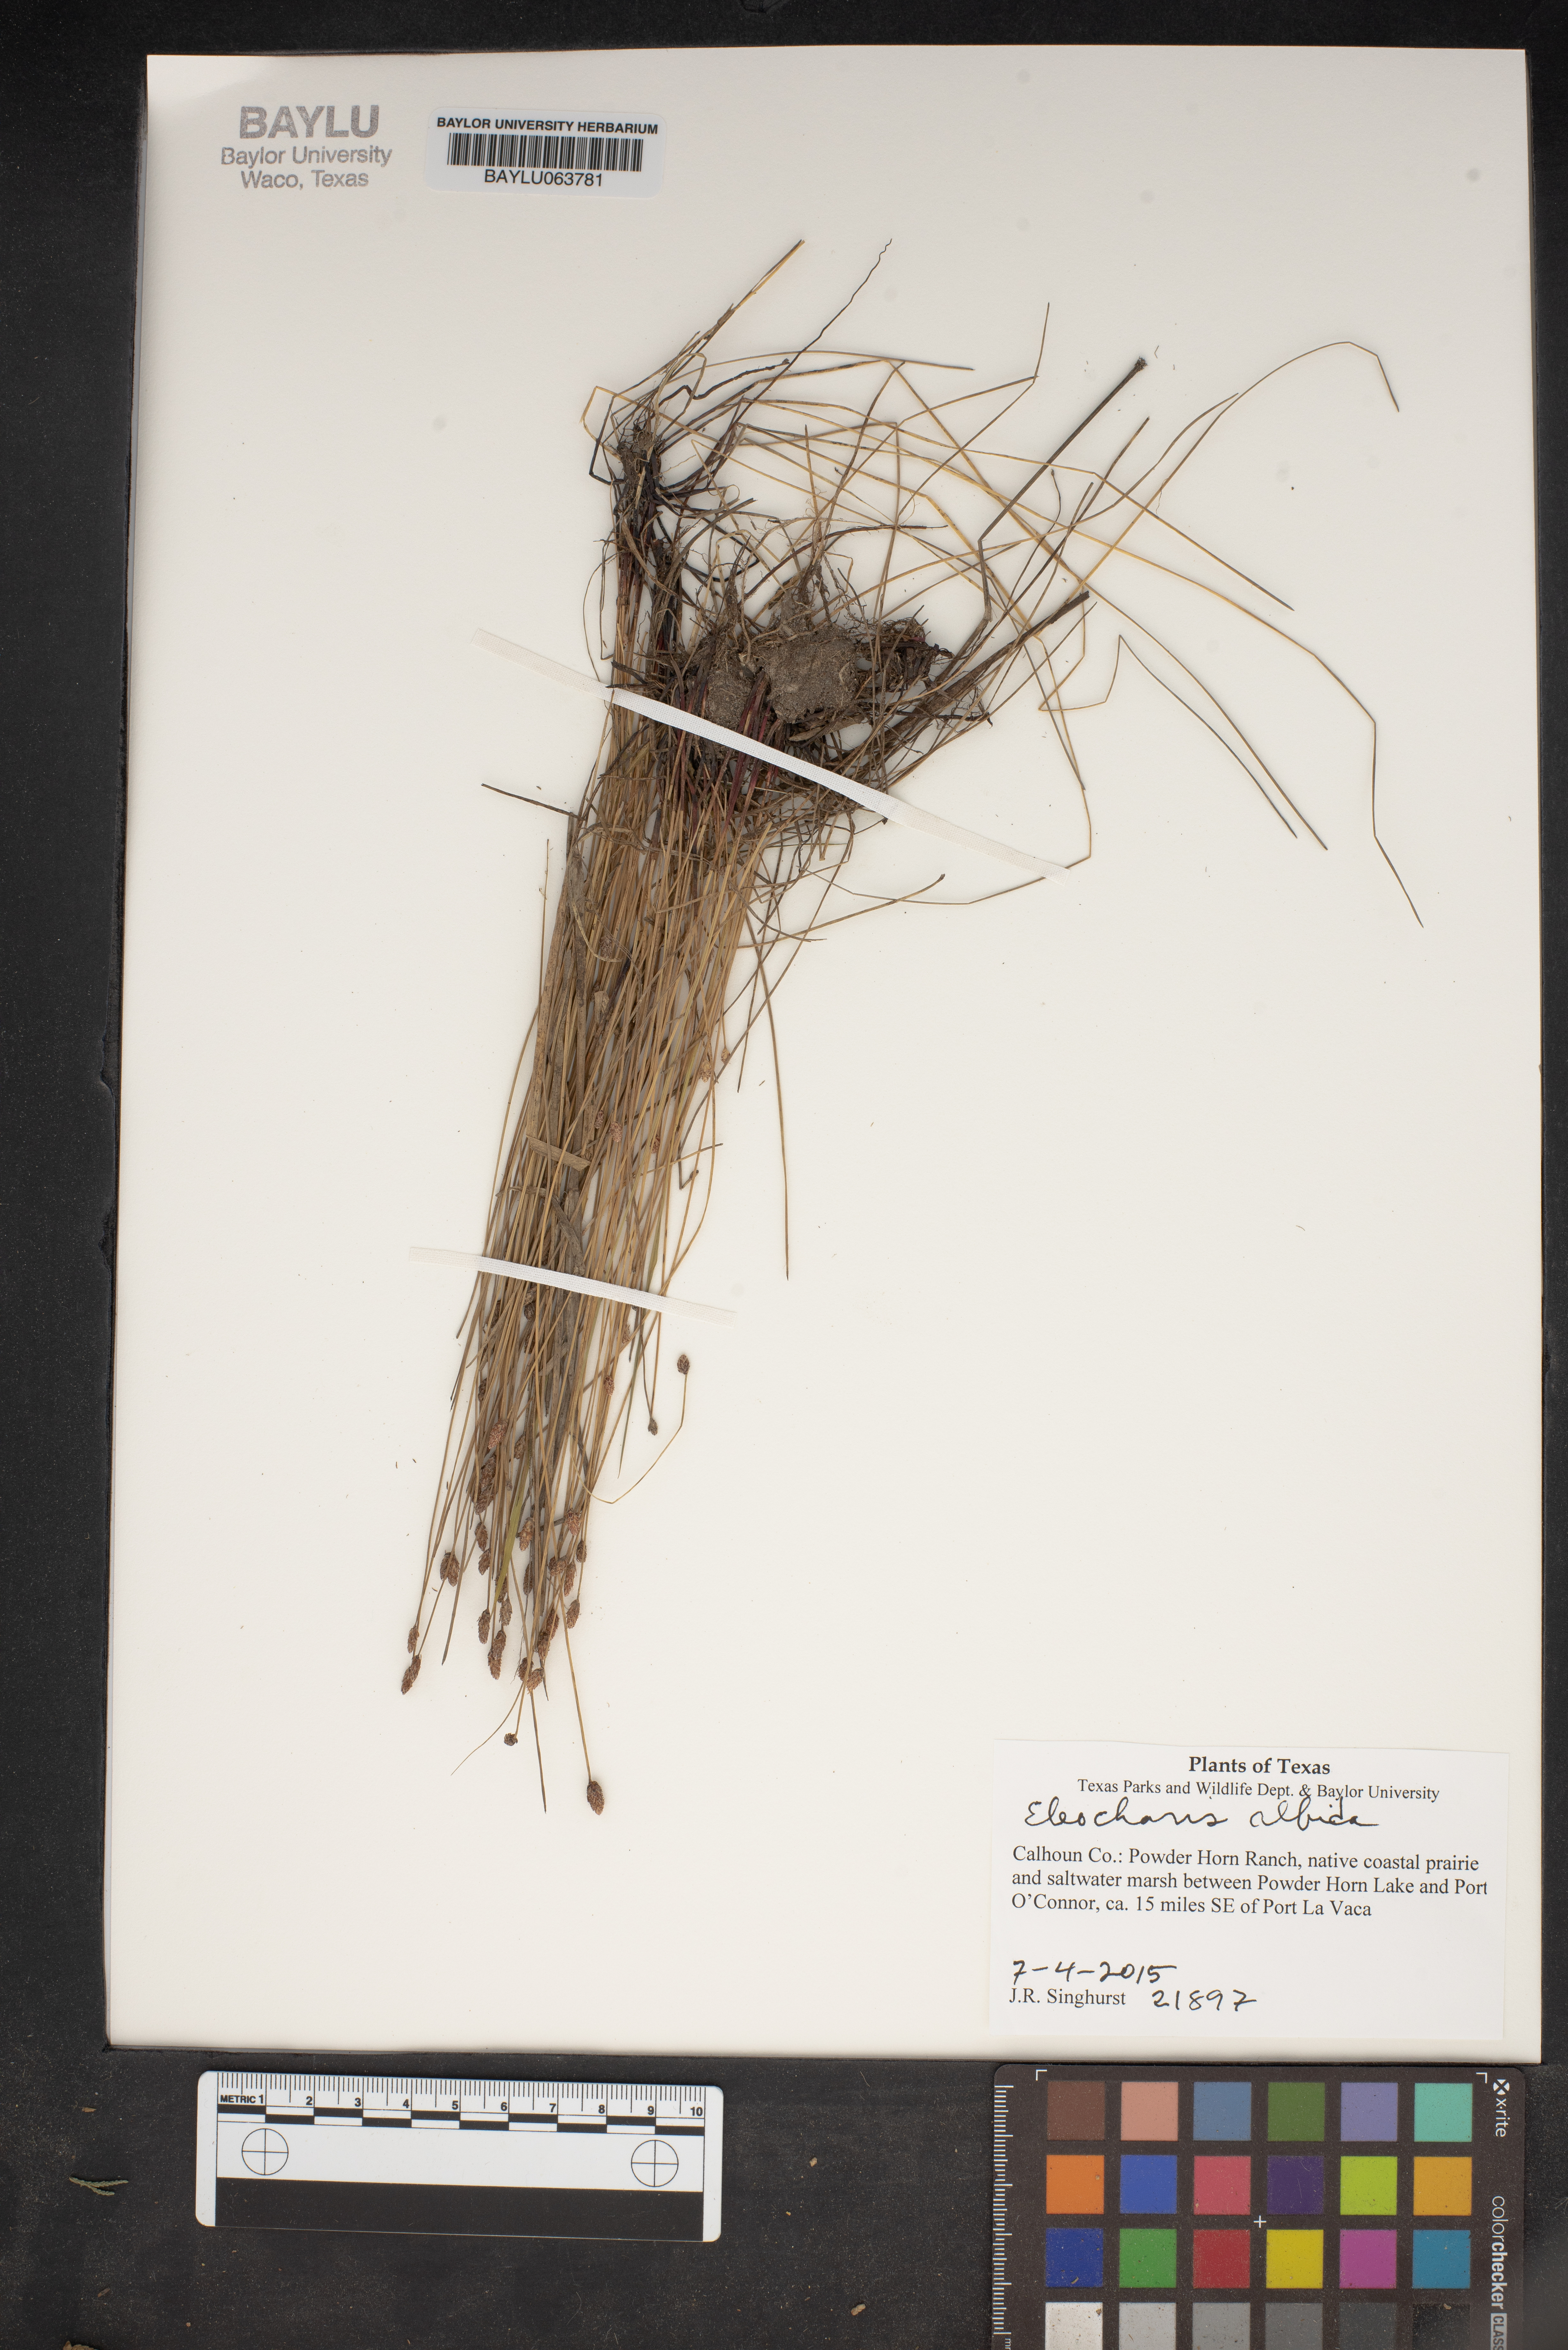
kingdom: Plantae
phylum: Tracheophyta
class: Liliopsida
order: Poales
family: Cyperaceae
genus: Eleocharis
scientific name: Eleocharis albida
